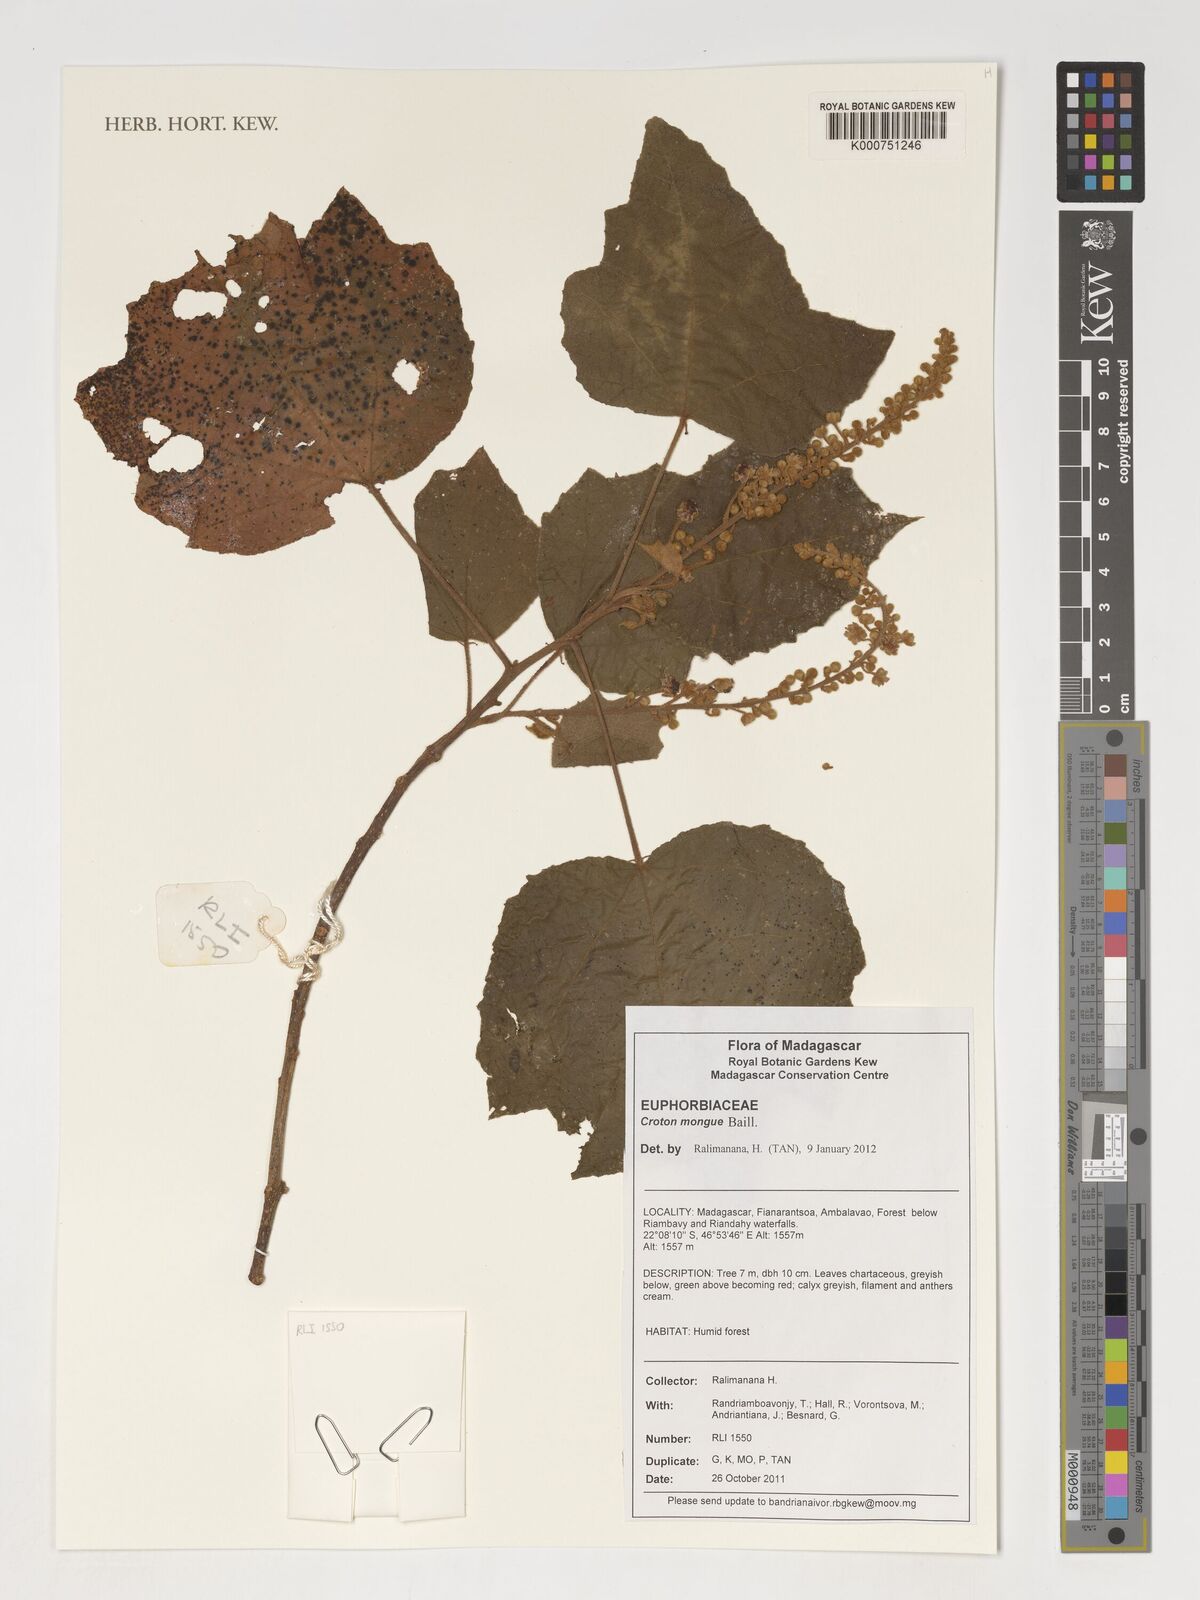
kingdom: Plantae
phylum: Tracheophyta
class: Magnoliopsida
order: Malpighiales
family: Euphorbiaceae
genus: Croton
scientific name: Croton mongue
